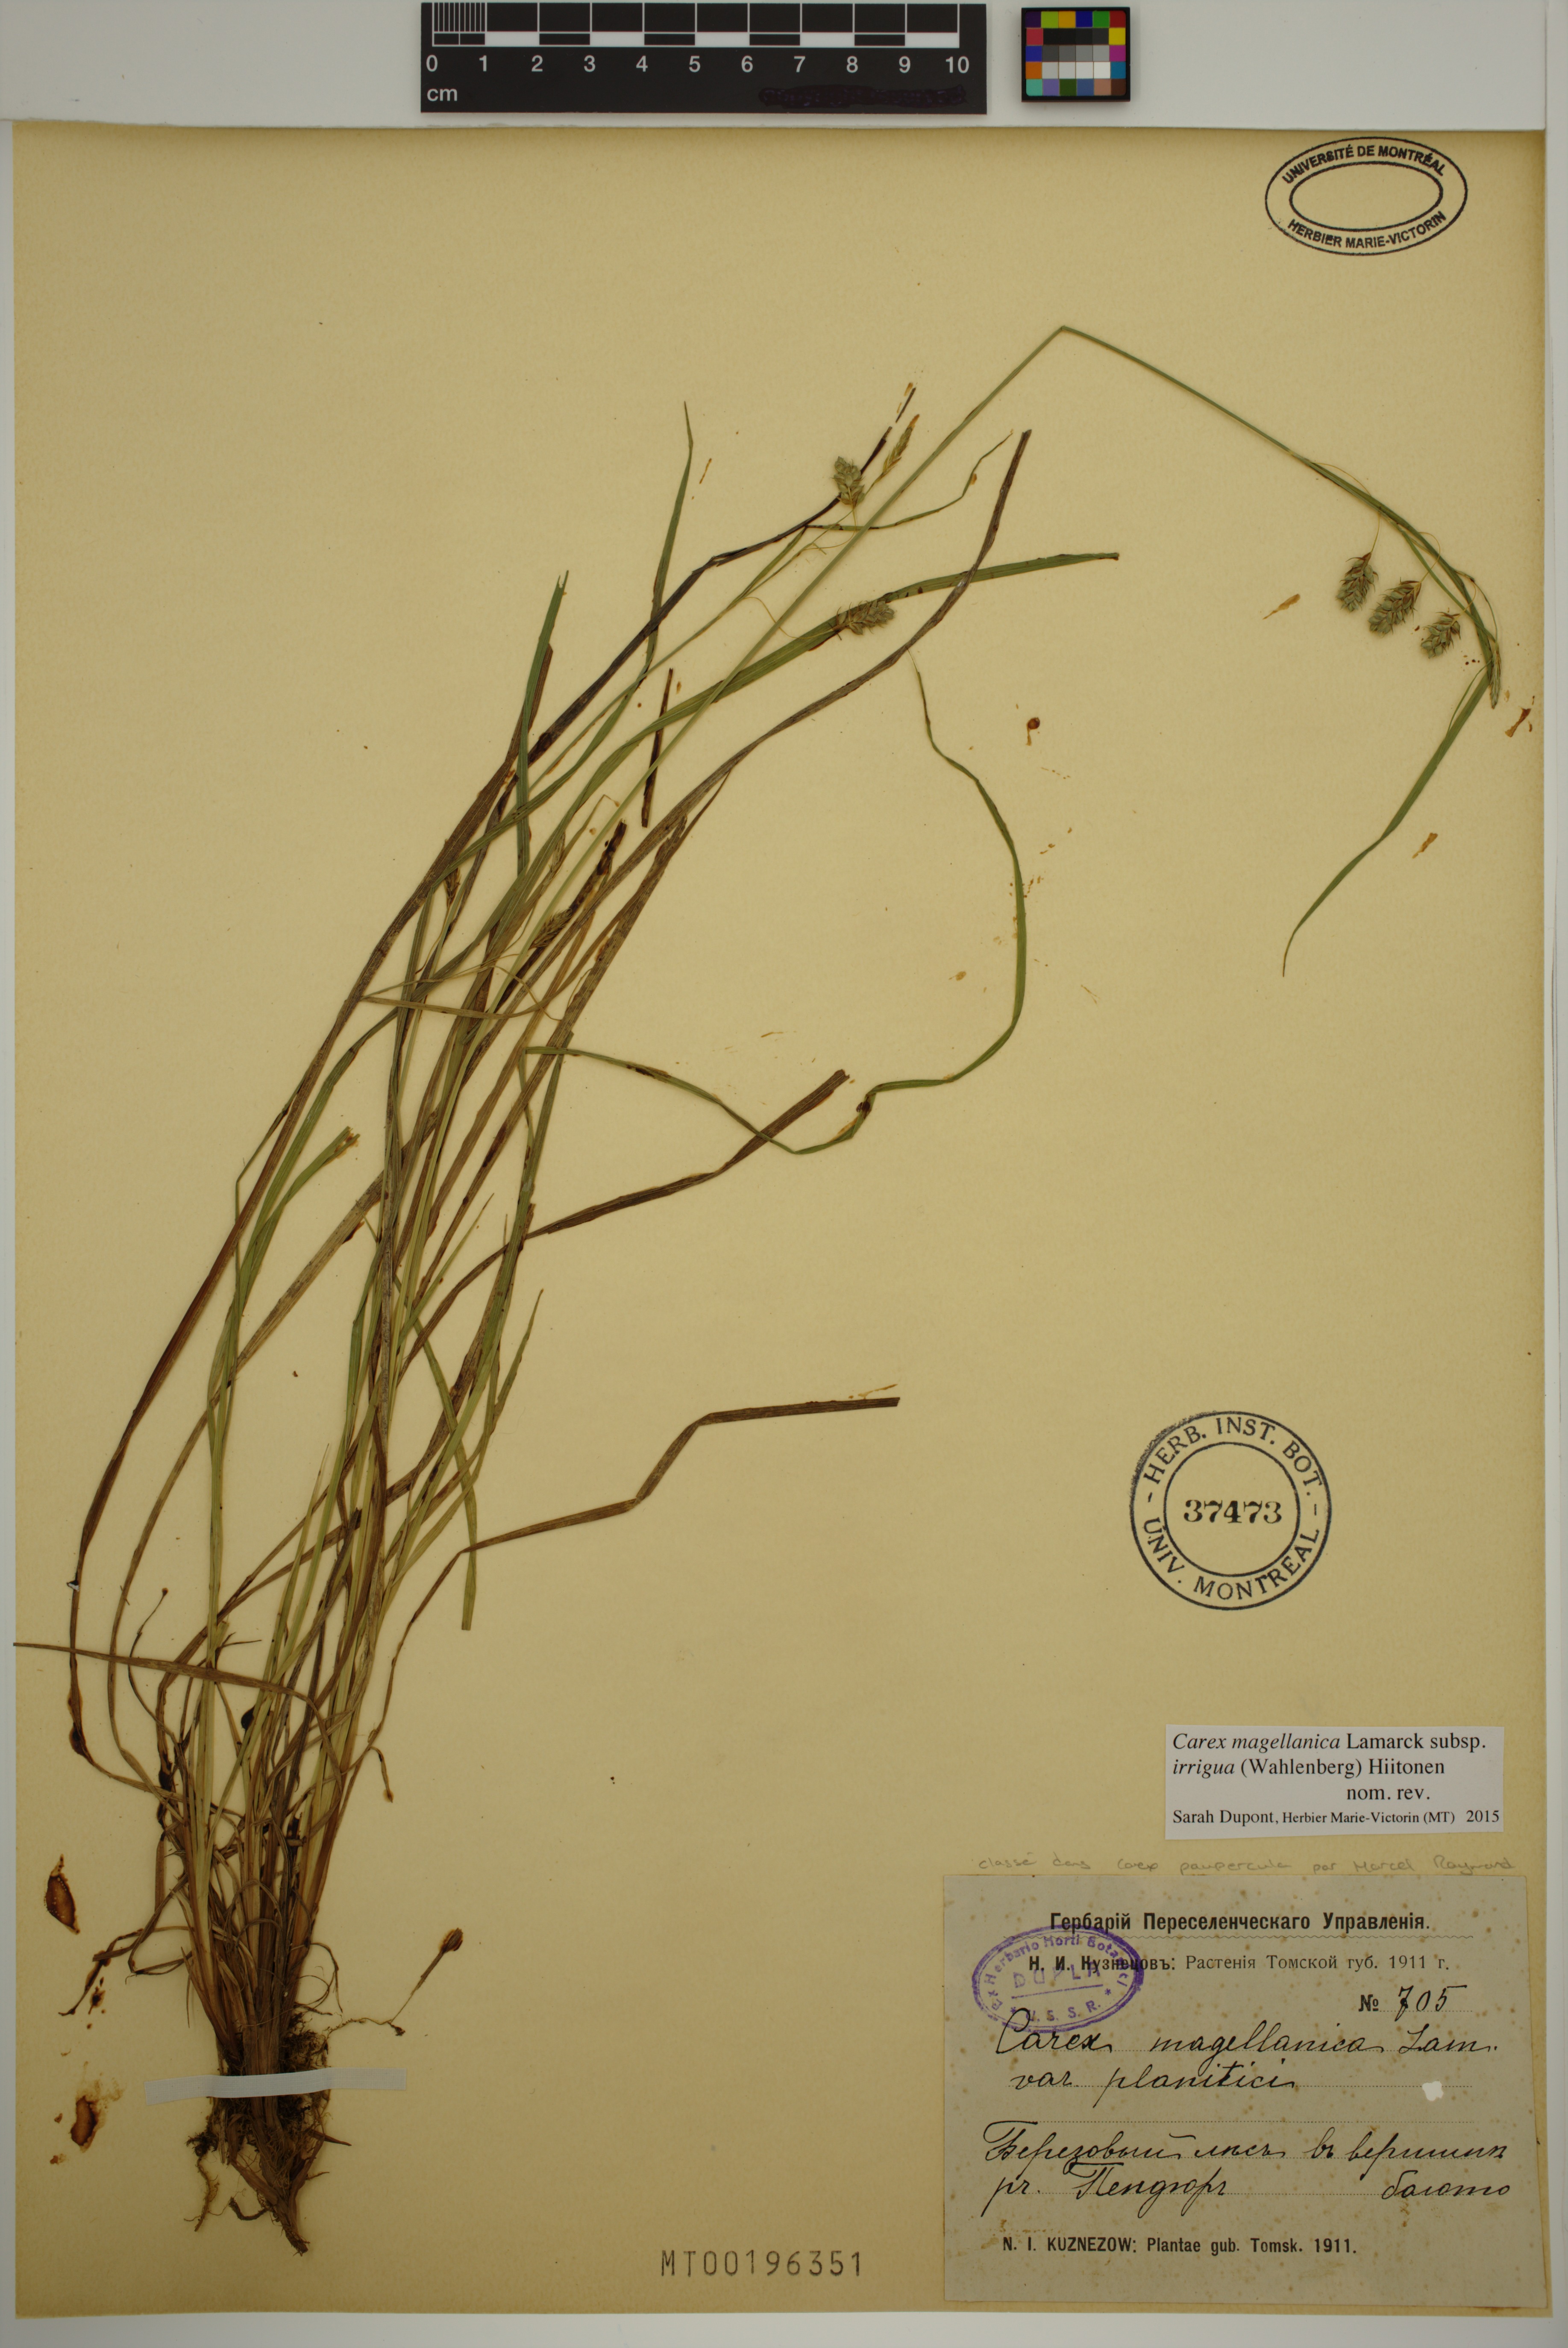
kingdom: Plantae
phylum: Tracheophyta
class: Liliopsida
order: Poales
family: Cyperaceae
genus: Carex
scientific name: Carex magellanica
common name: Bog sedge
